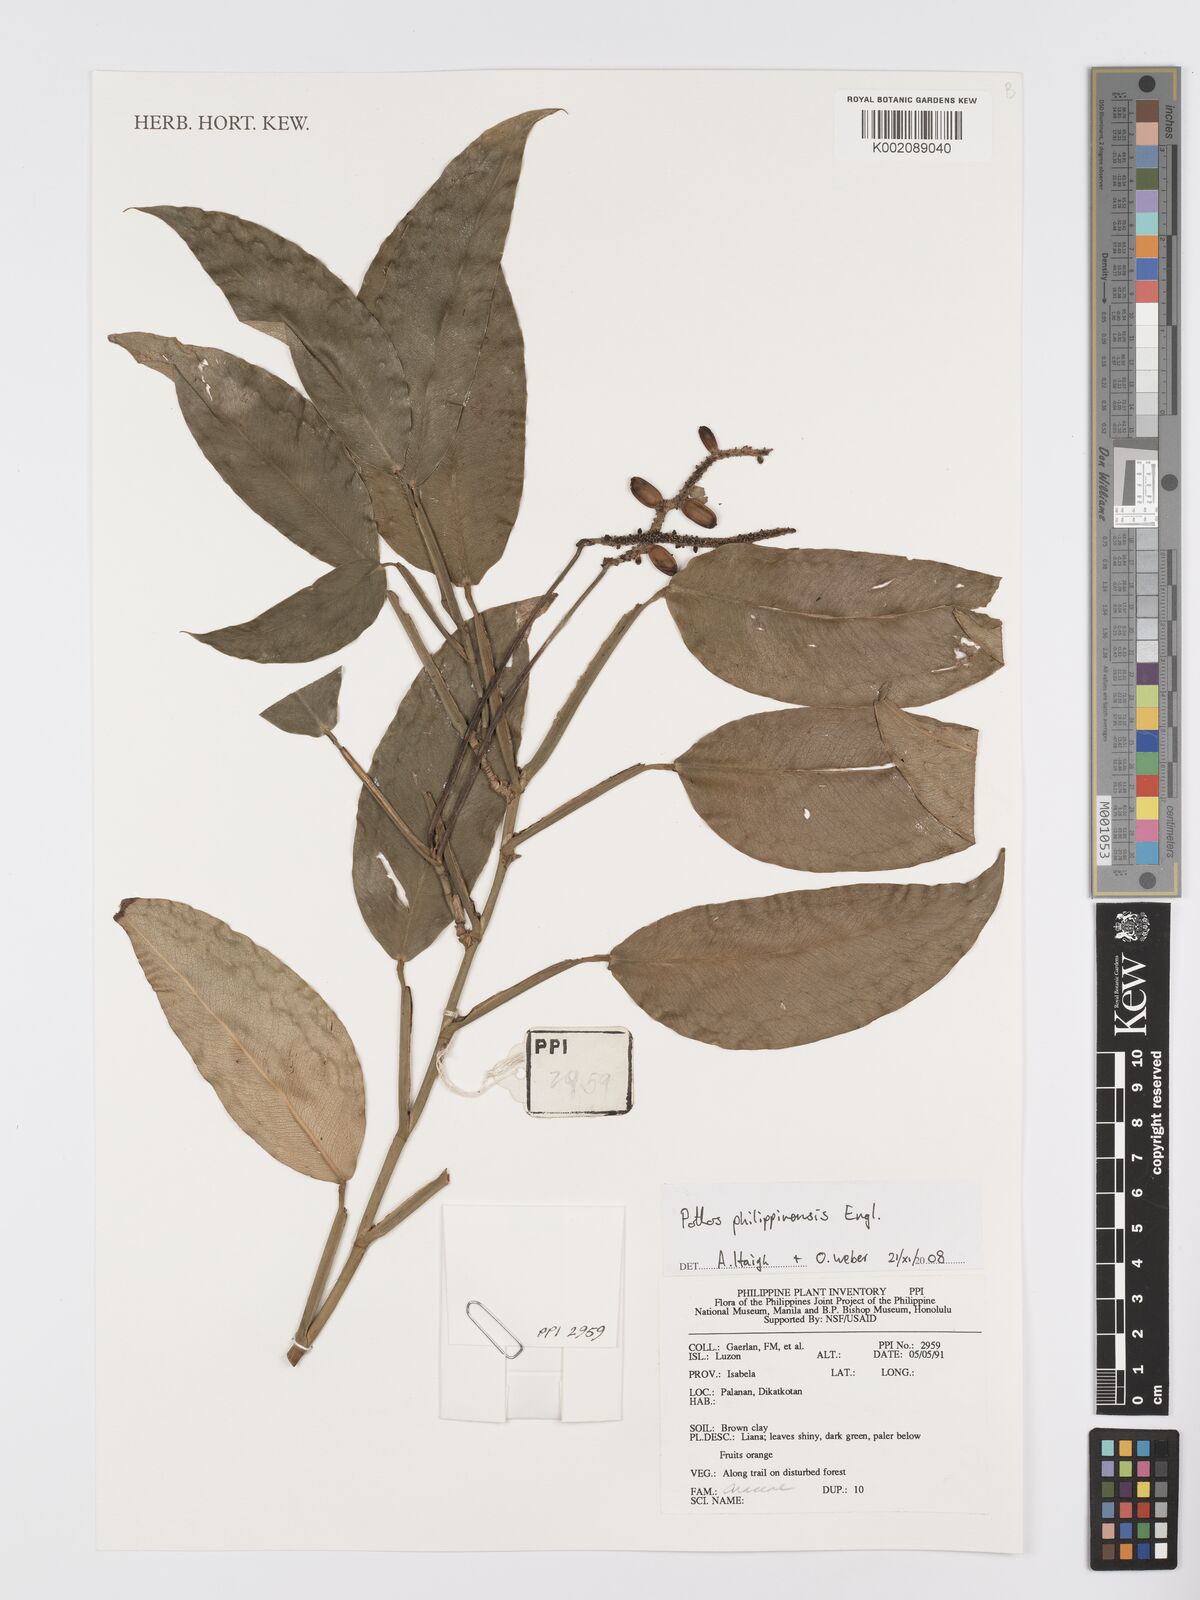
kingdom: Plantae
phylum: Tracheophyta
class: Liliopsida
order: Alismatales
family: Araceae
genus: Pothos
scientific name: Pothos philippinensis
